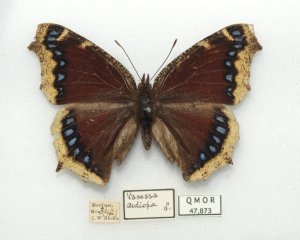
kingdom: Animalia
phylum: Arthropoda
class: Insecta
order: Lepidoptera
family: Nymphalidae
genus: Nymphalis
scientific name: Nymphalis antiopa
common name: Mourning Cloak
